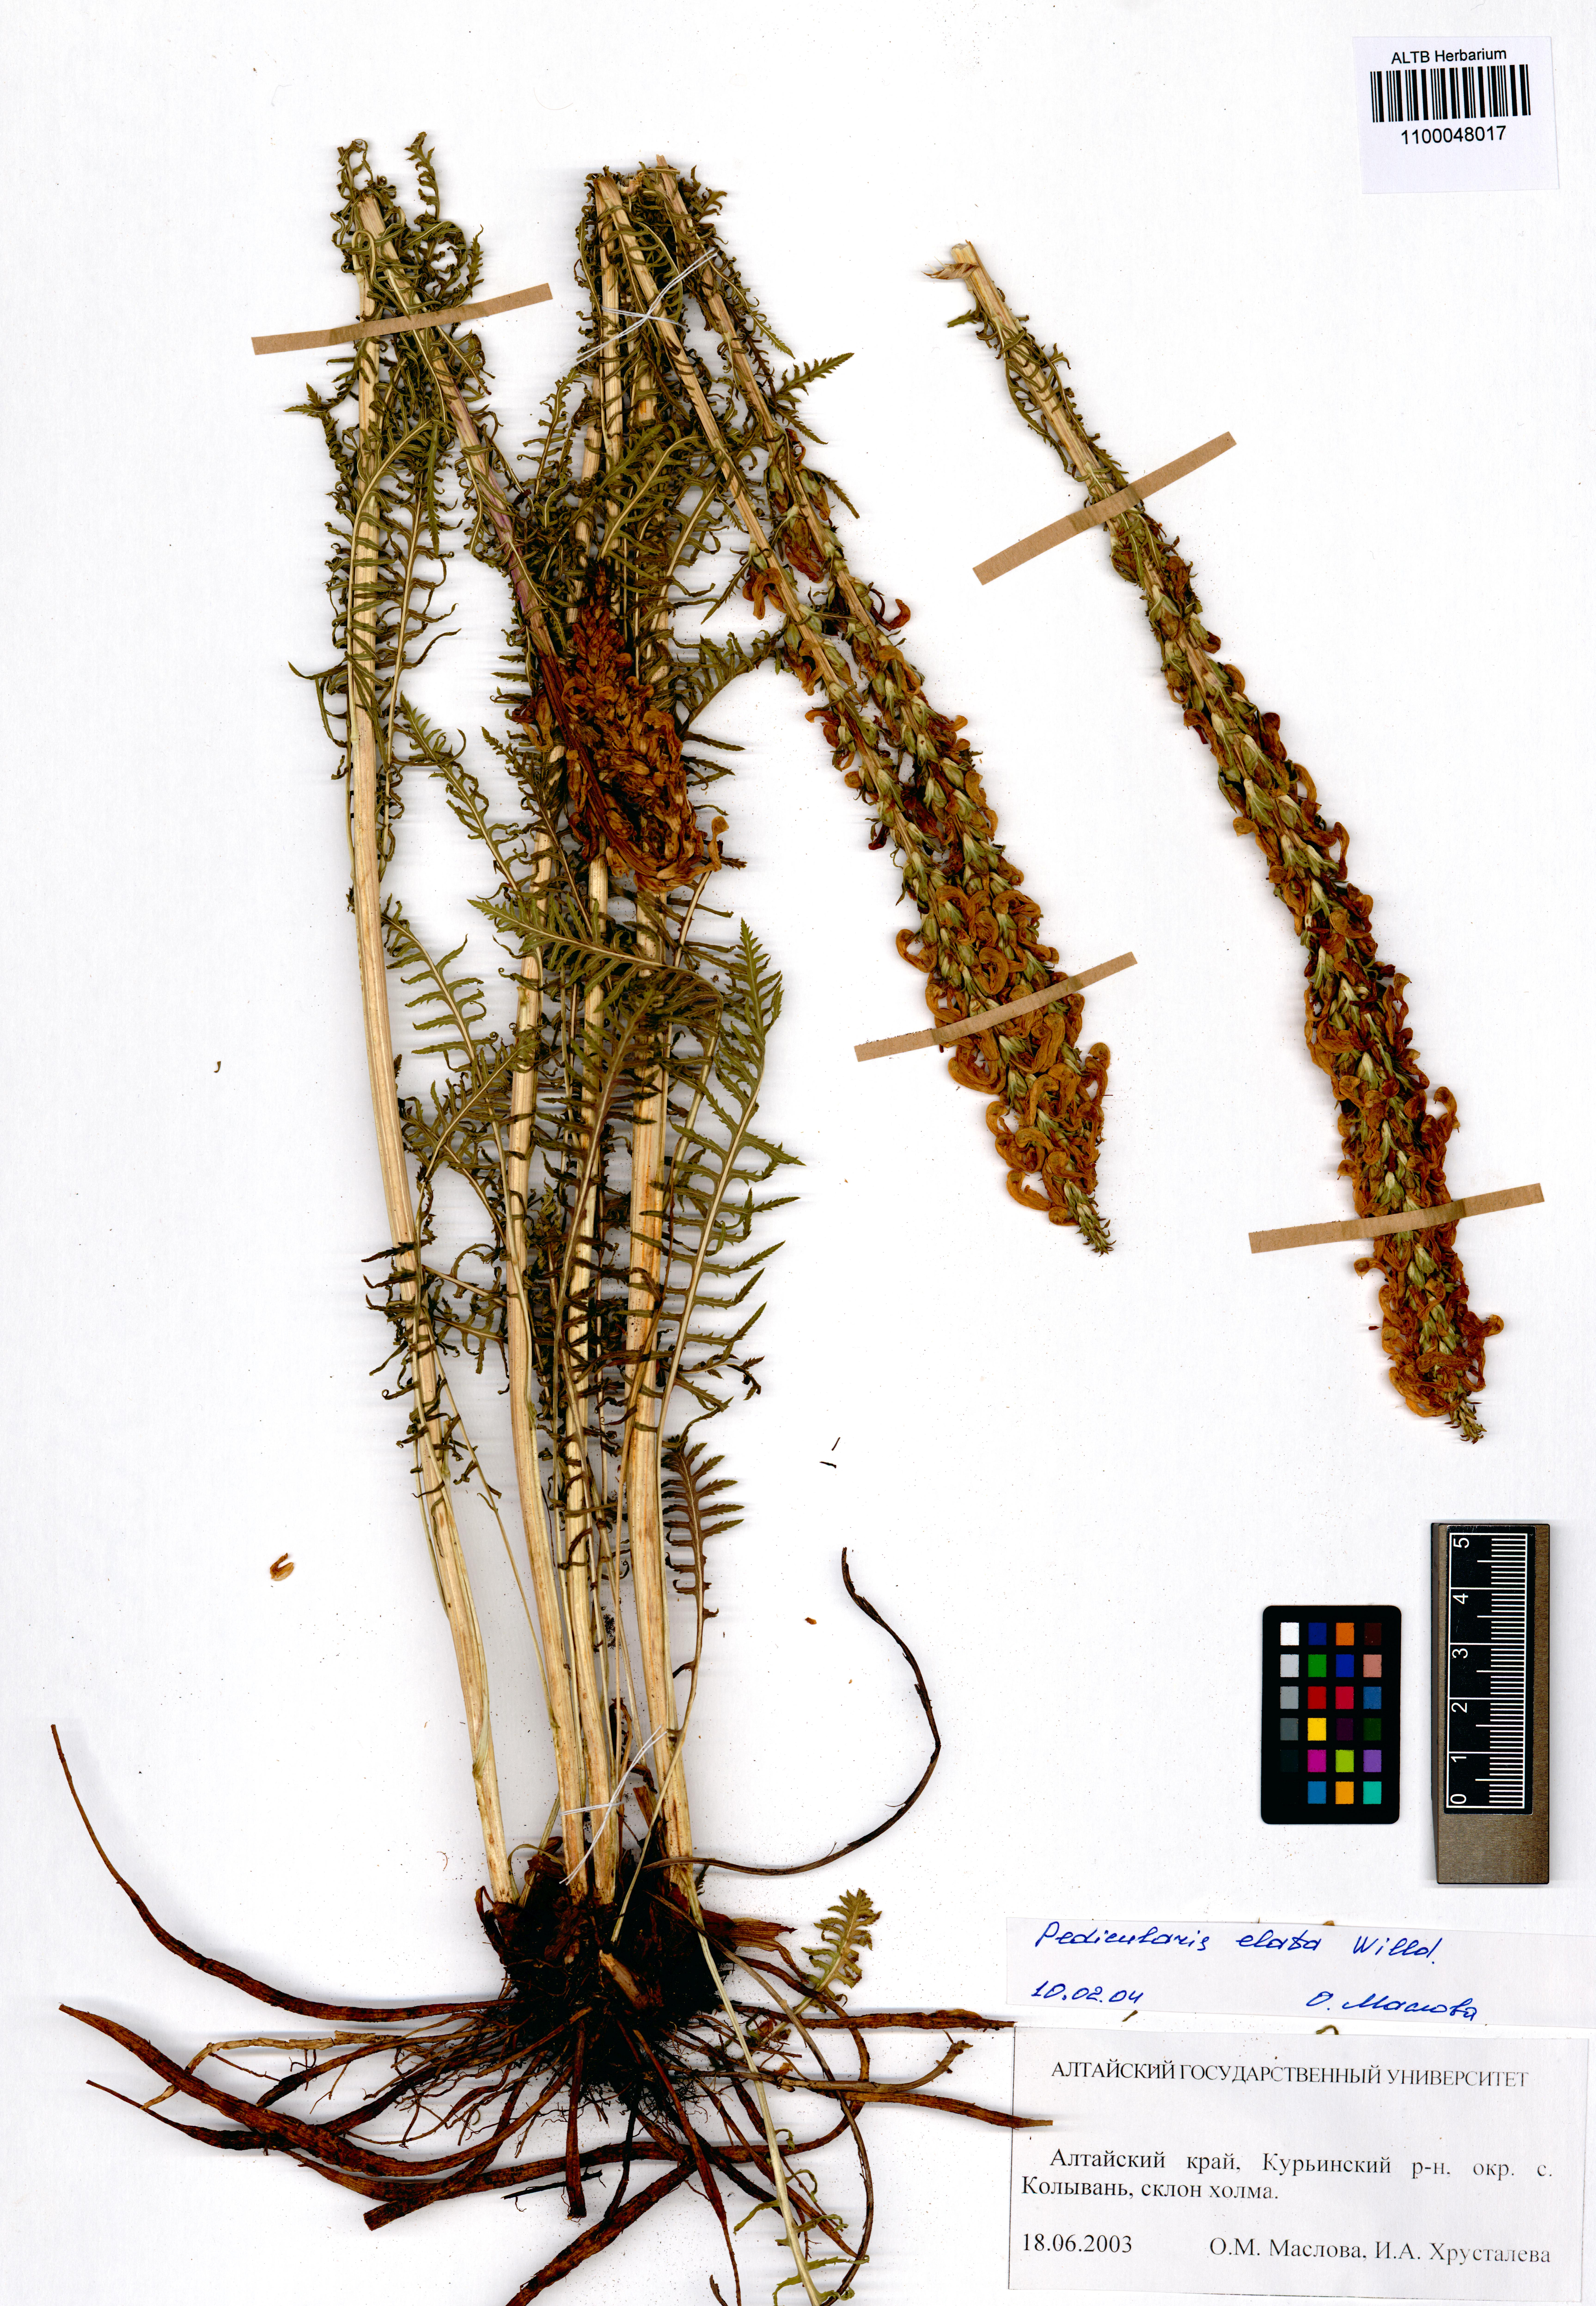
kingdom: Plantae
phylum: Tracheophyta
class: Magnoliopsida
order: Lamiales
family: Orobanchaceae
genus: Pedicularis
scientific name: Pedicularis elata
